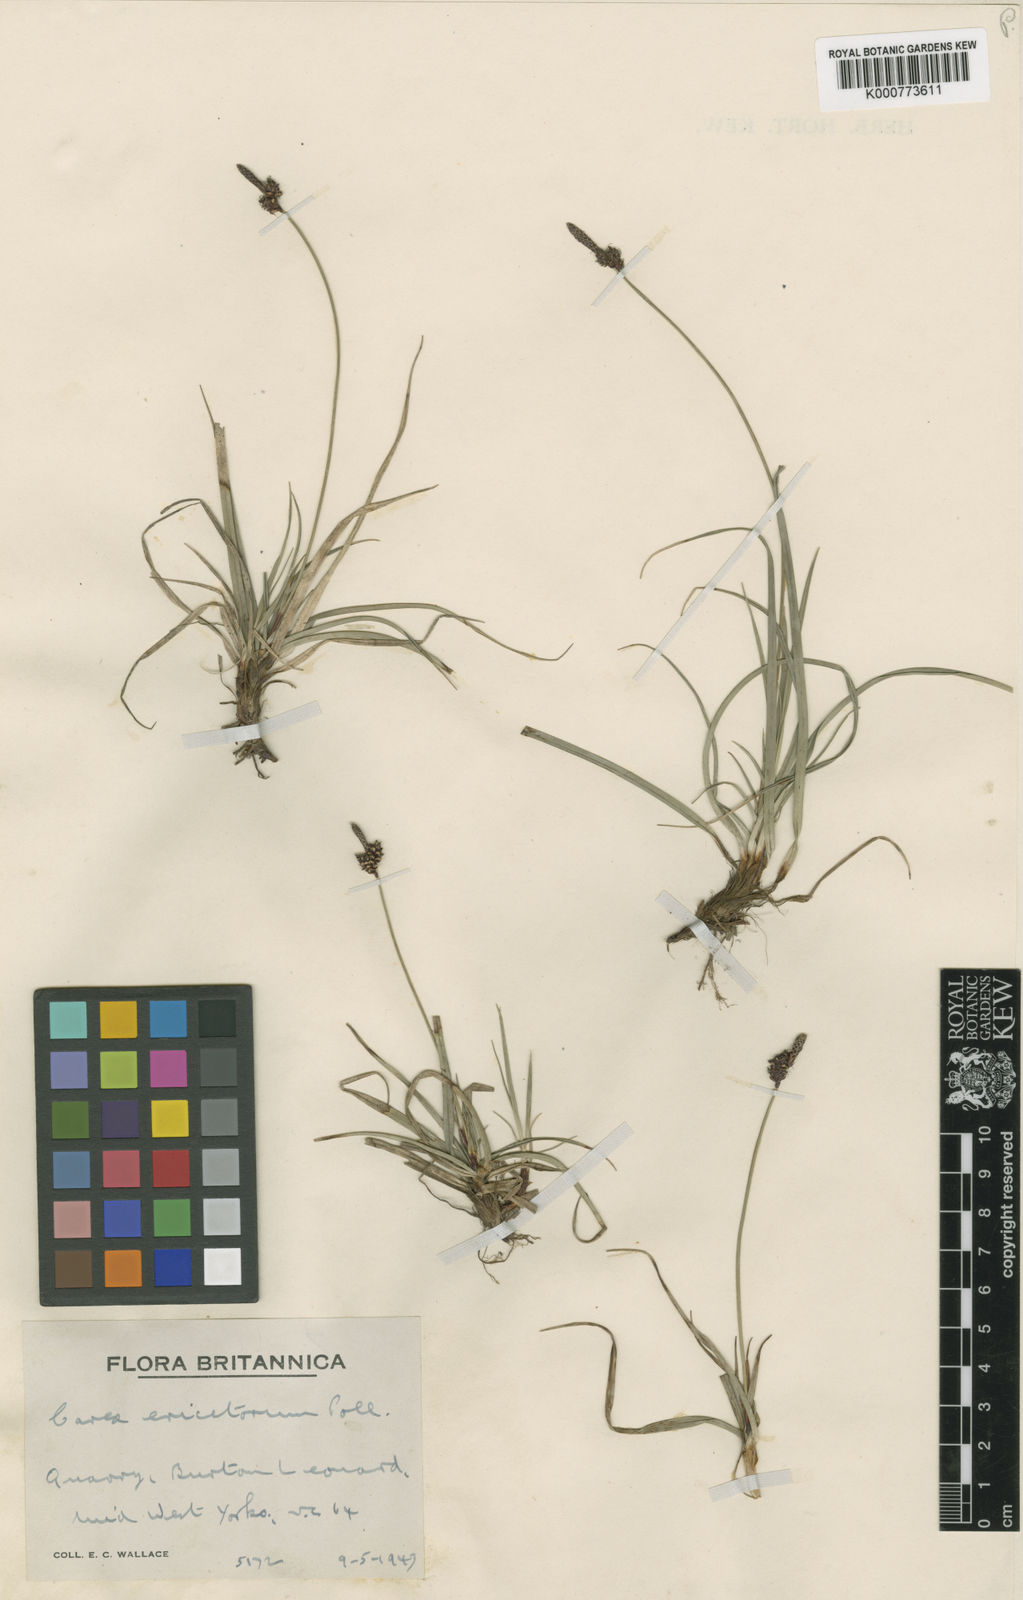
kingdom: Plantae
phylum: Tracheophyta
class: Liliopsida
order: Poales
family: Cyperaceae
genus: Carex
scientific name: Carex ericetorum
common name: Rare spring-sedge
